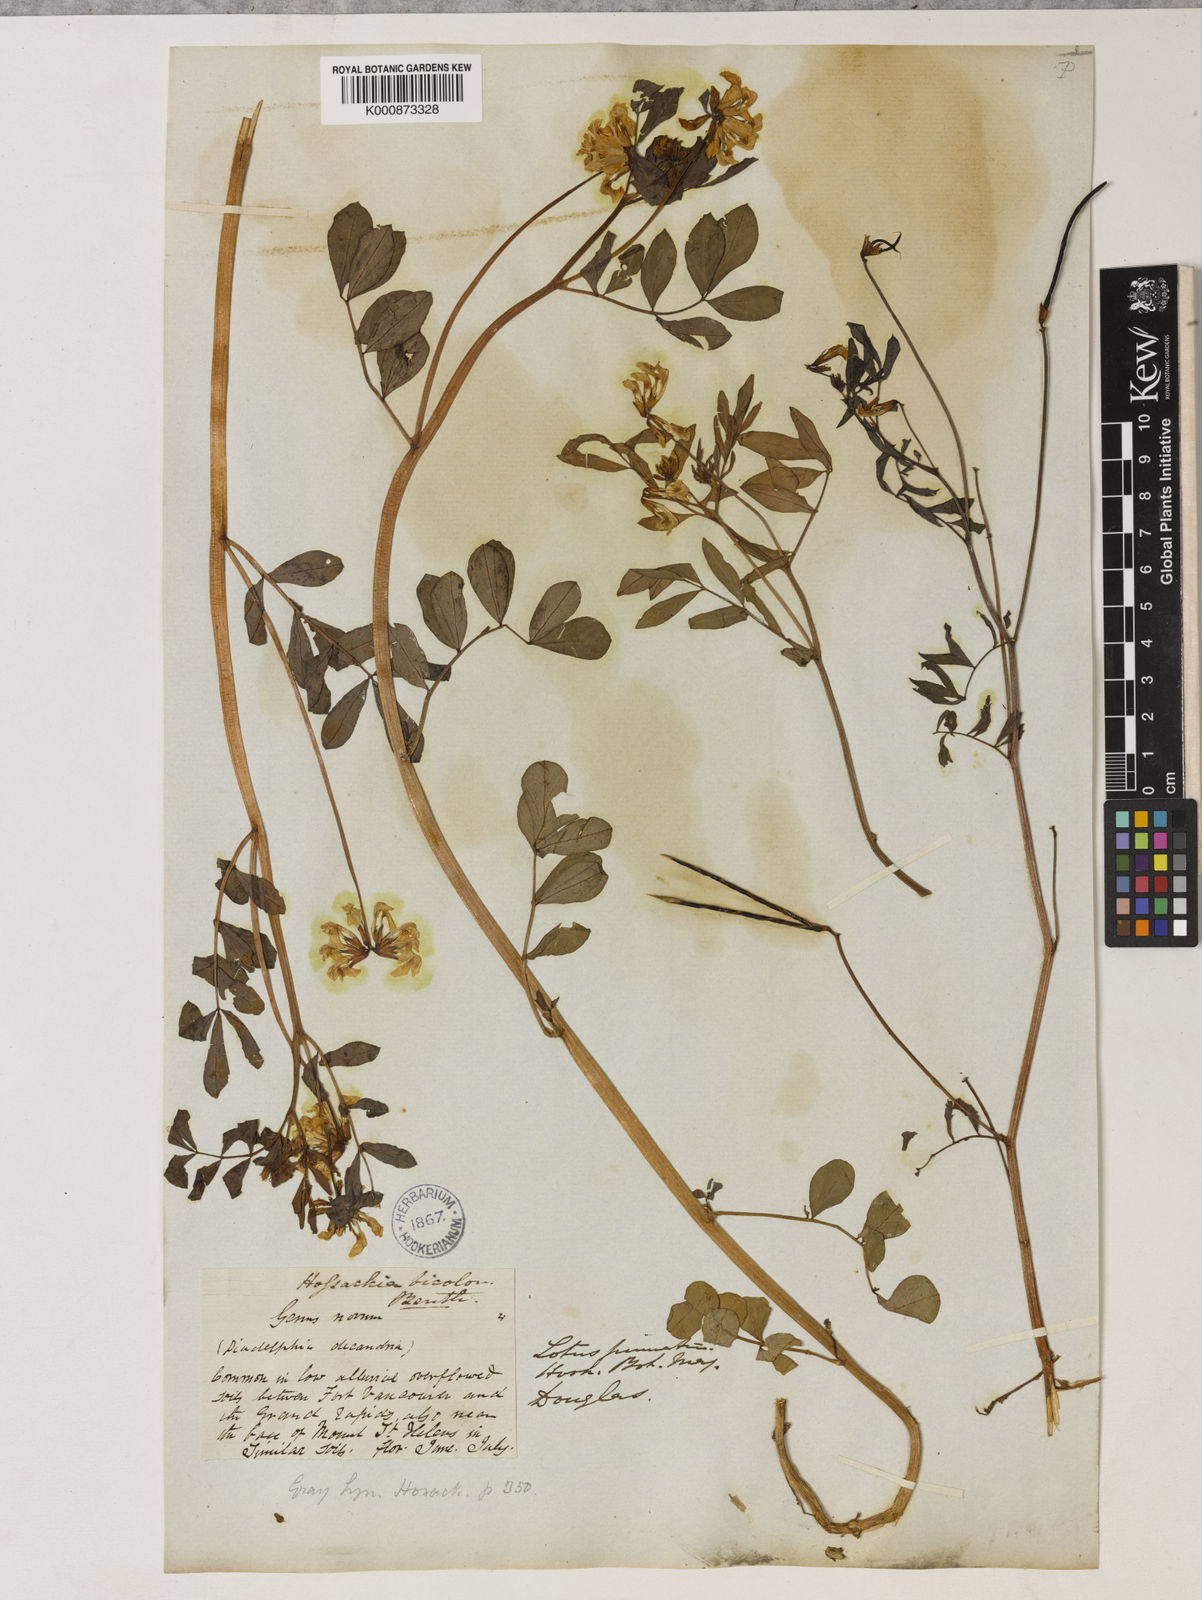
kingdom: Plantae
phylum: Tracheophyta
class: Magnoliopsida
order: Fabales
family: Fabaceae
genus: Hosackia
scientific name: Hosackia pinnata
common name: Bog bird's-foot trefoil
